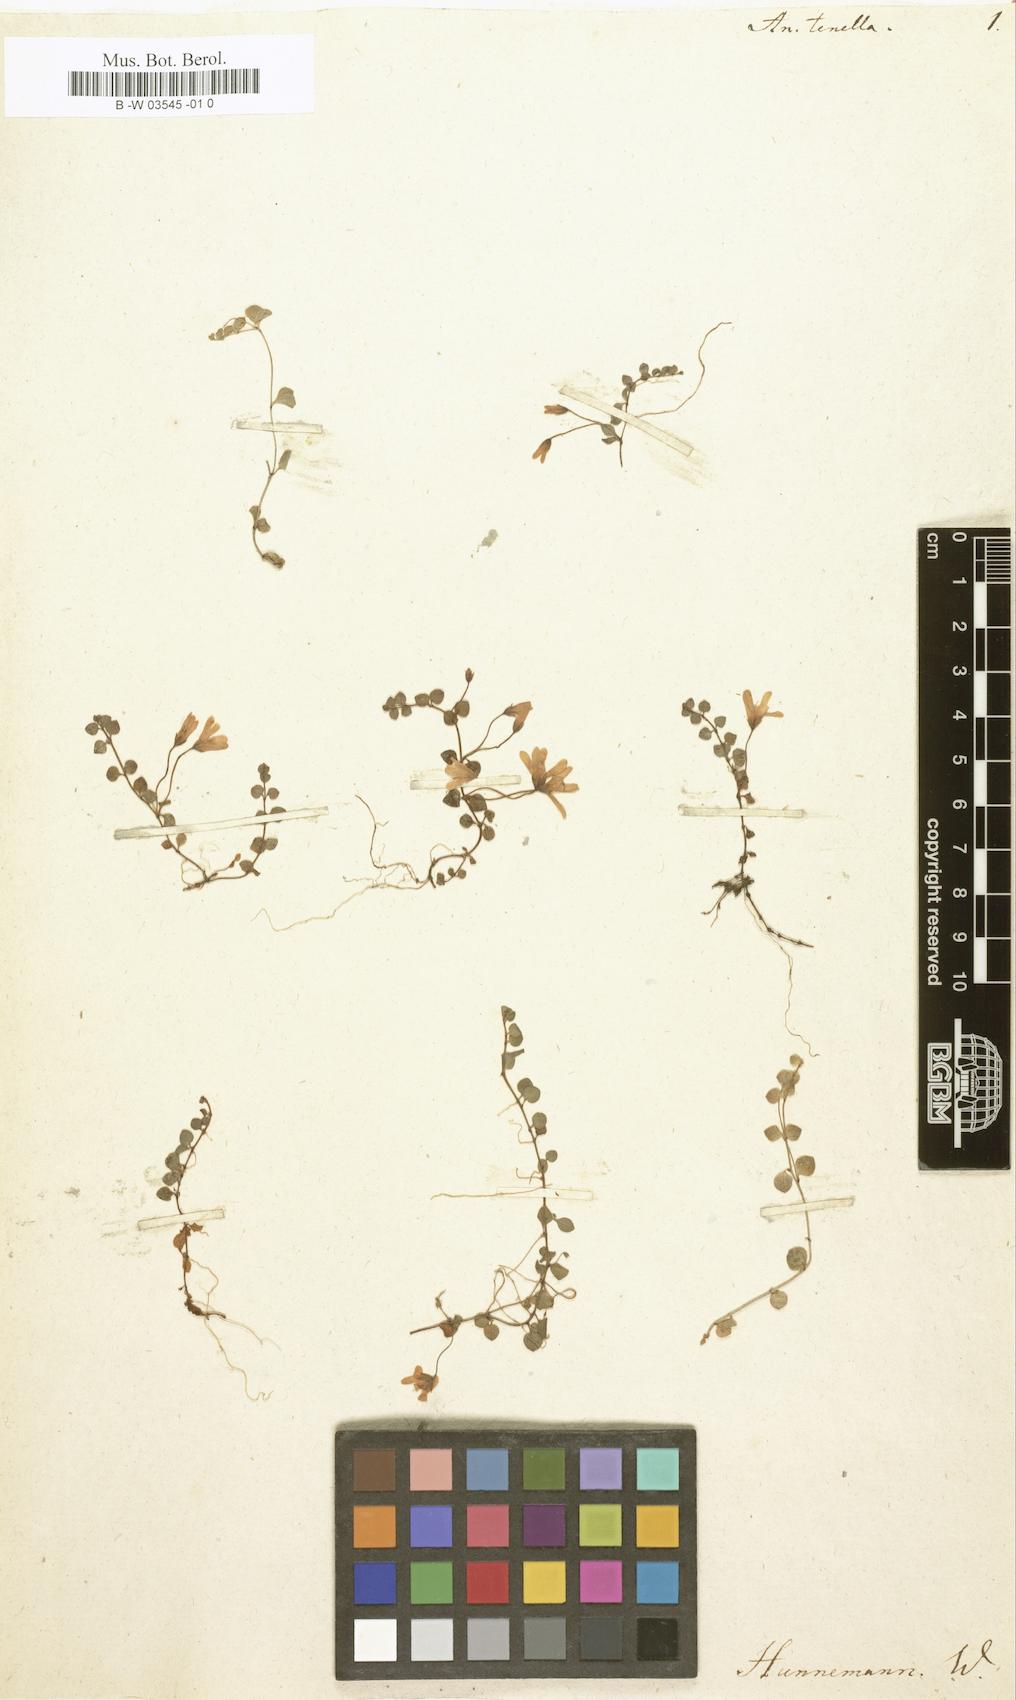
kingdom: Plantae
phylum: Tracheophyta
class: Magnoliopsida
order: Ericales
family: Primulaceae
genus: Lysimachia
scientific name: Lysimachia tenella
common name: European bog pimpernel
